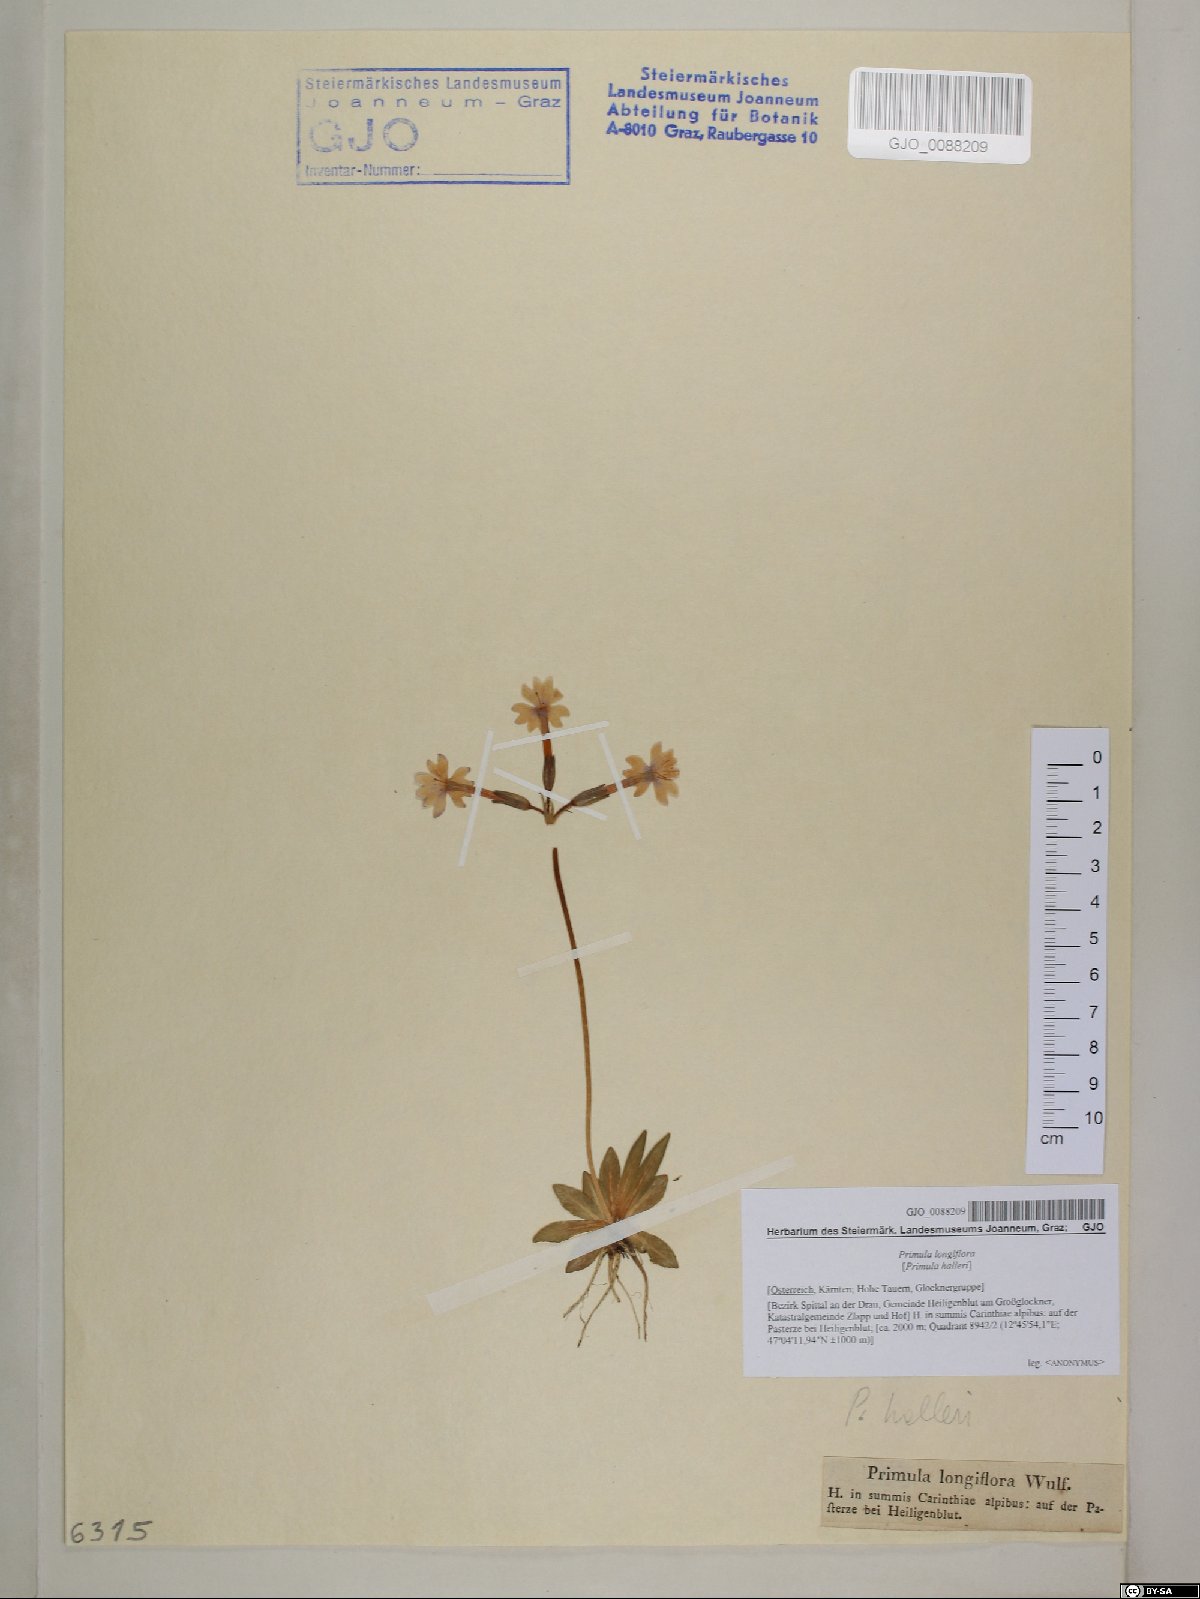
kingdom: Plantae
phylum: Tracheophyta
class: Magnoliopsida
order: Ericales
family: Primulaceae
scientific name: Primulaceae
